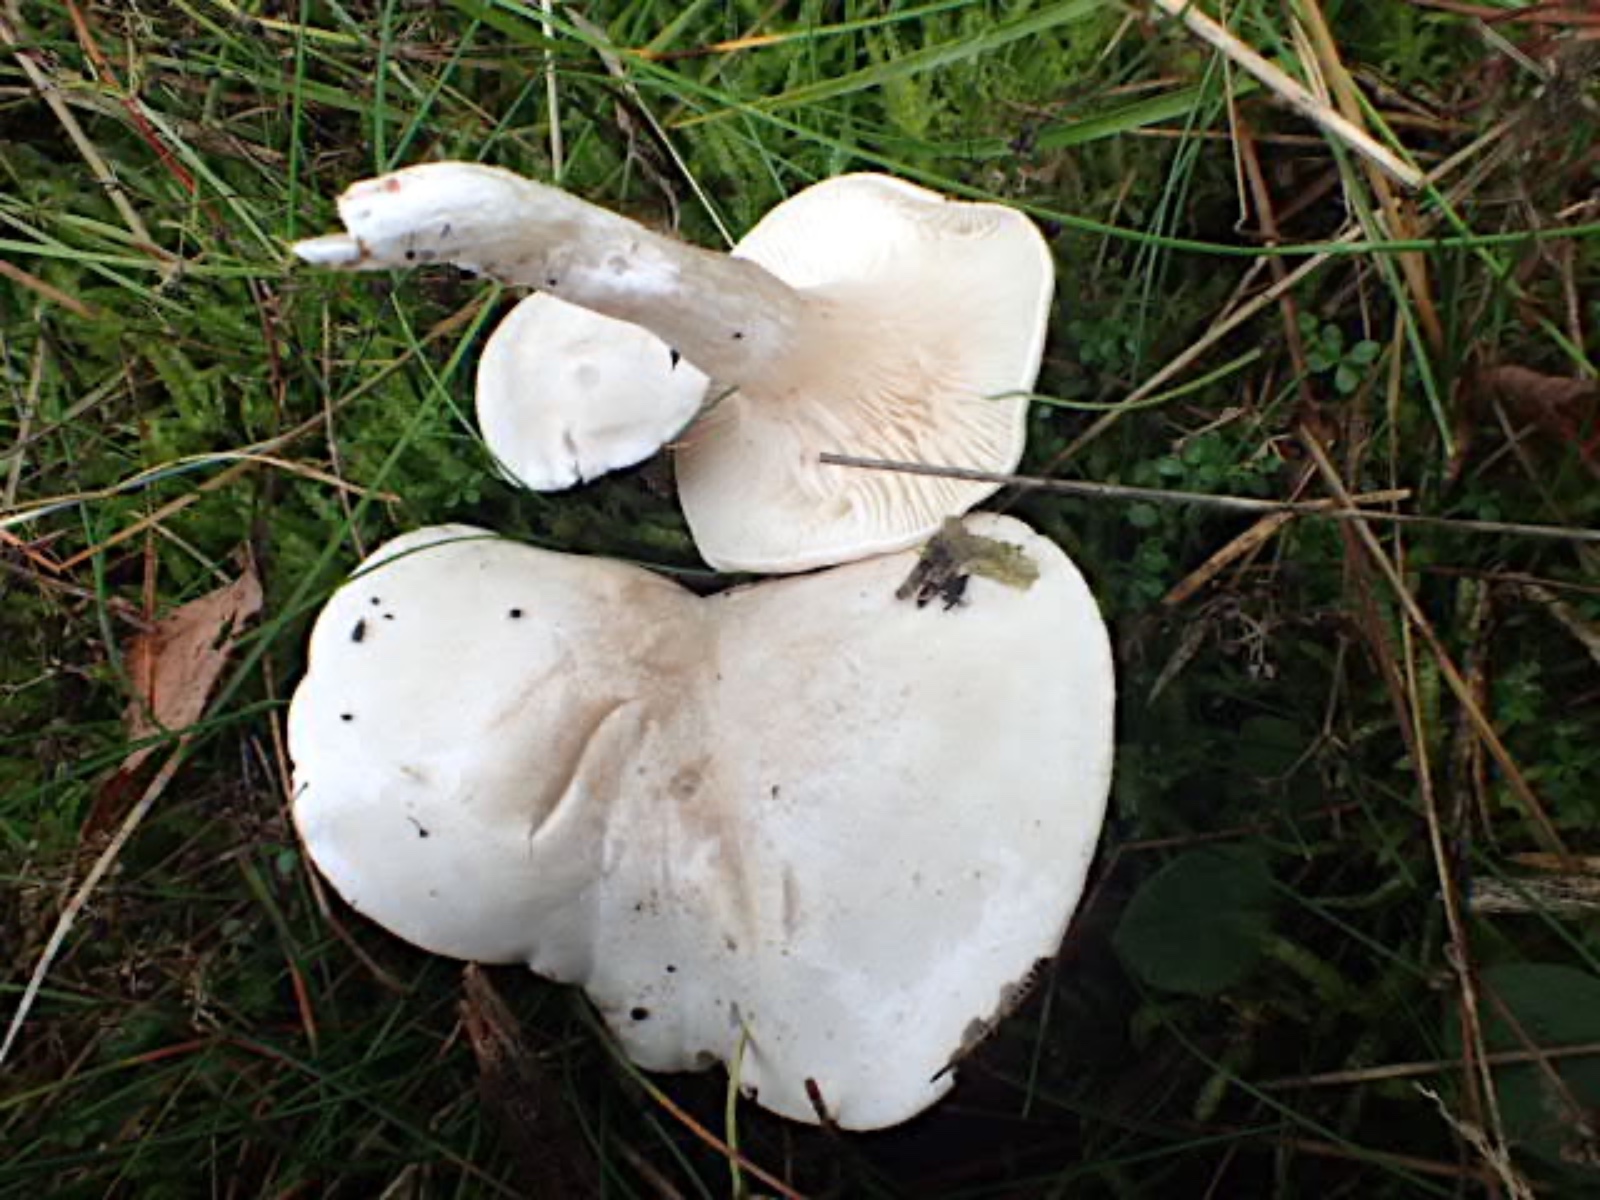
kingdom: Fungi
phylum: Basidiomycota
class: Agaricomycetes
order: Agaricales
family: Entolomataceae
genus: Clitopilus
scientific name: Clitopilus prunulus
